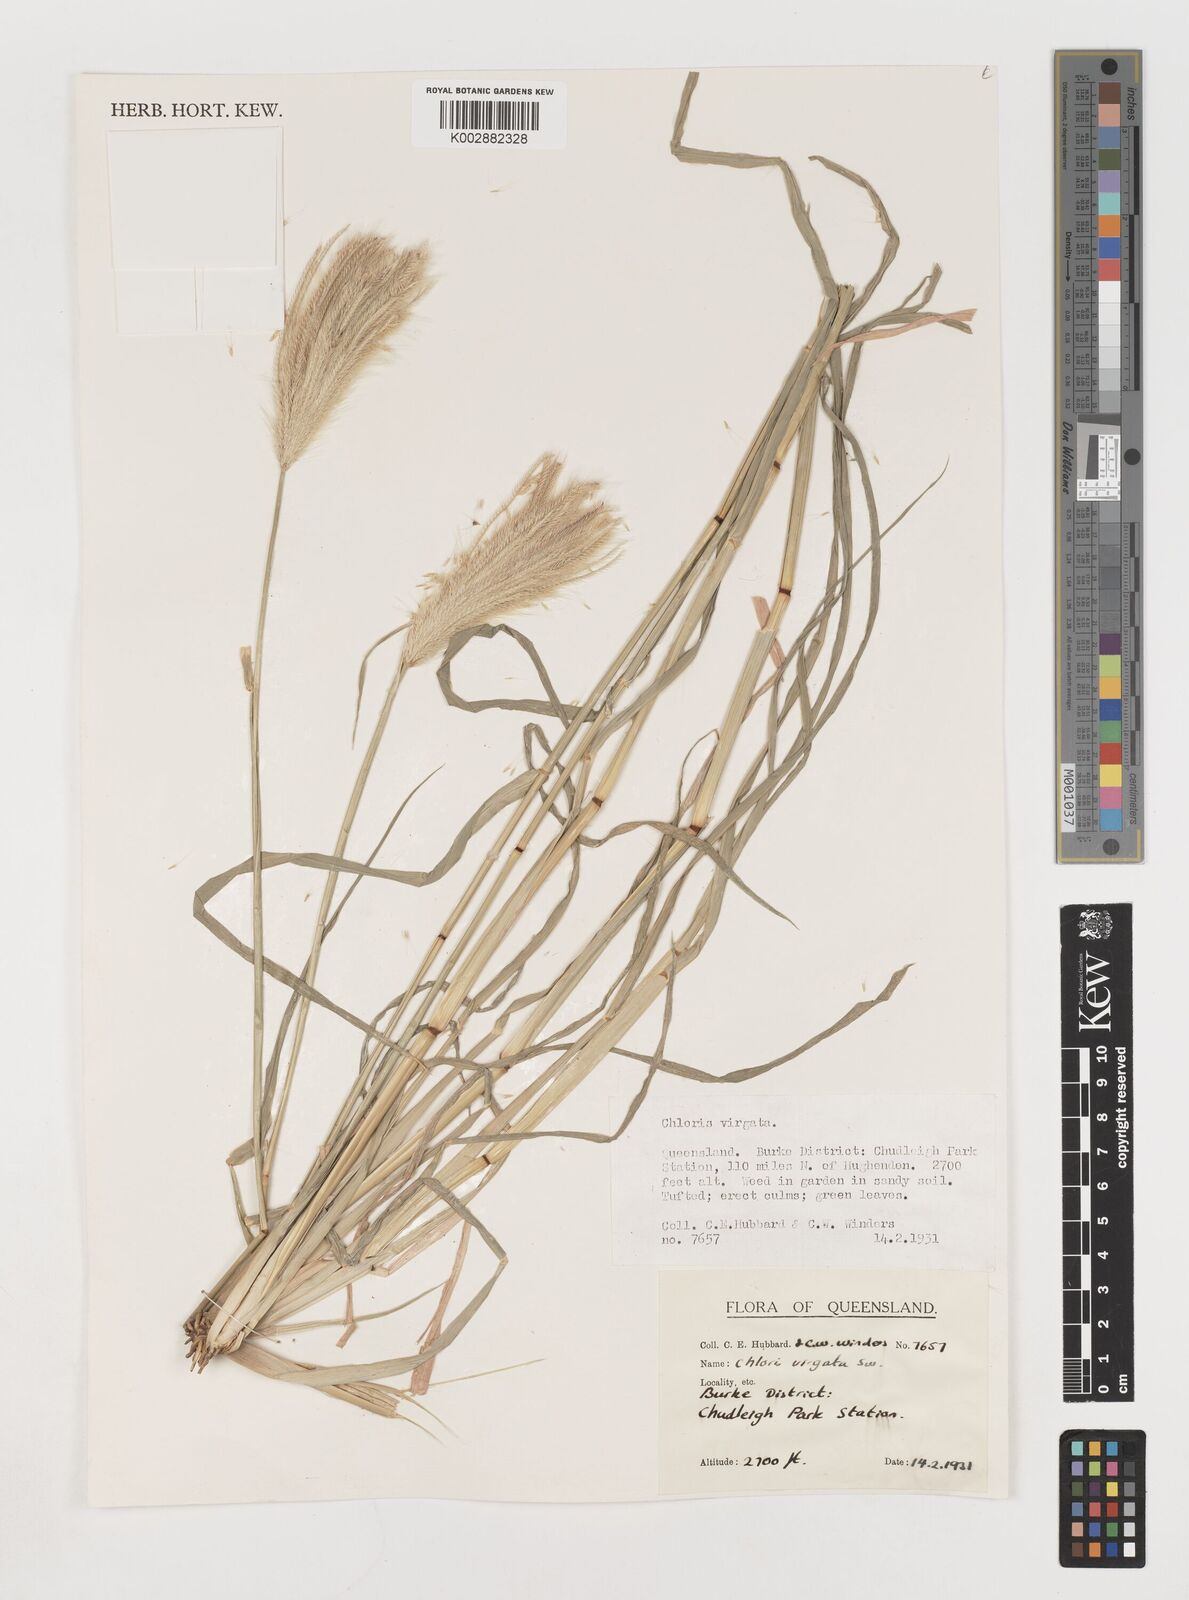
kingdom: Plantae
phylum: Tracheophyta
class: Liliopsida
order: Poales
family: Poaceae
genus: Chloris
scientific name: Chloris virgata
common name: Feathery rhodes-grass
